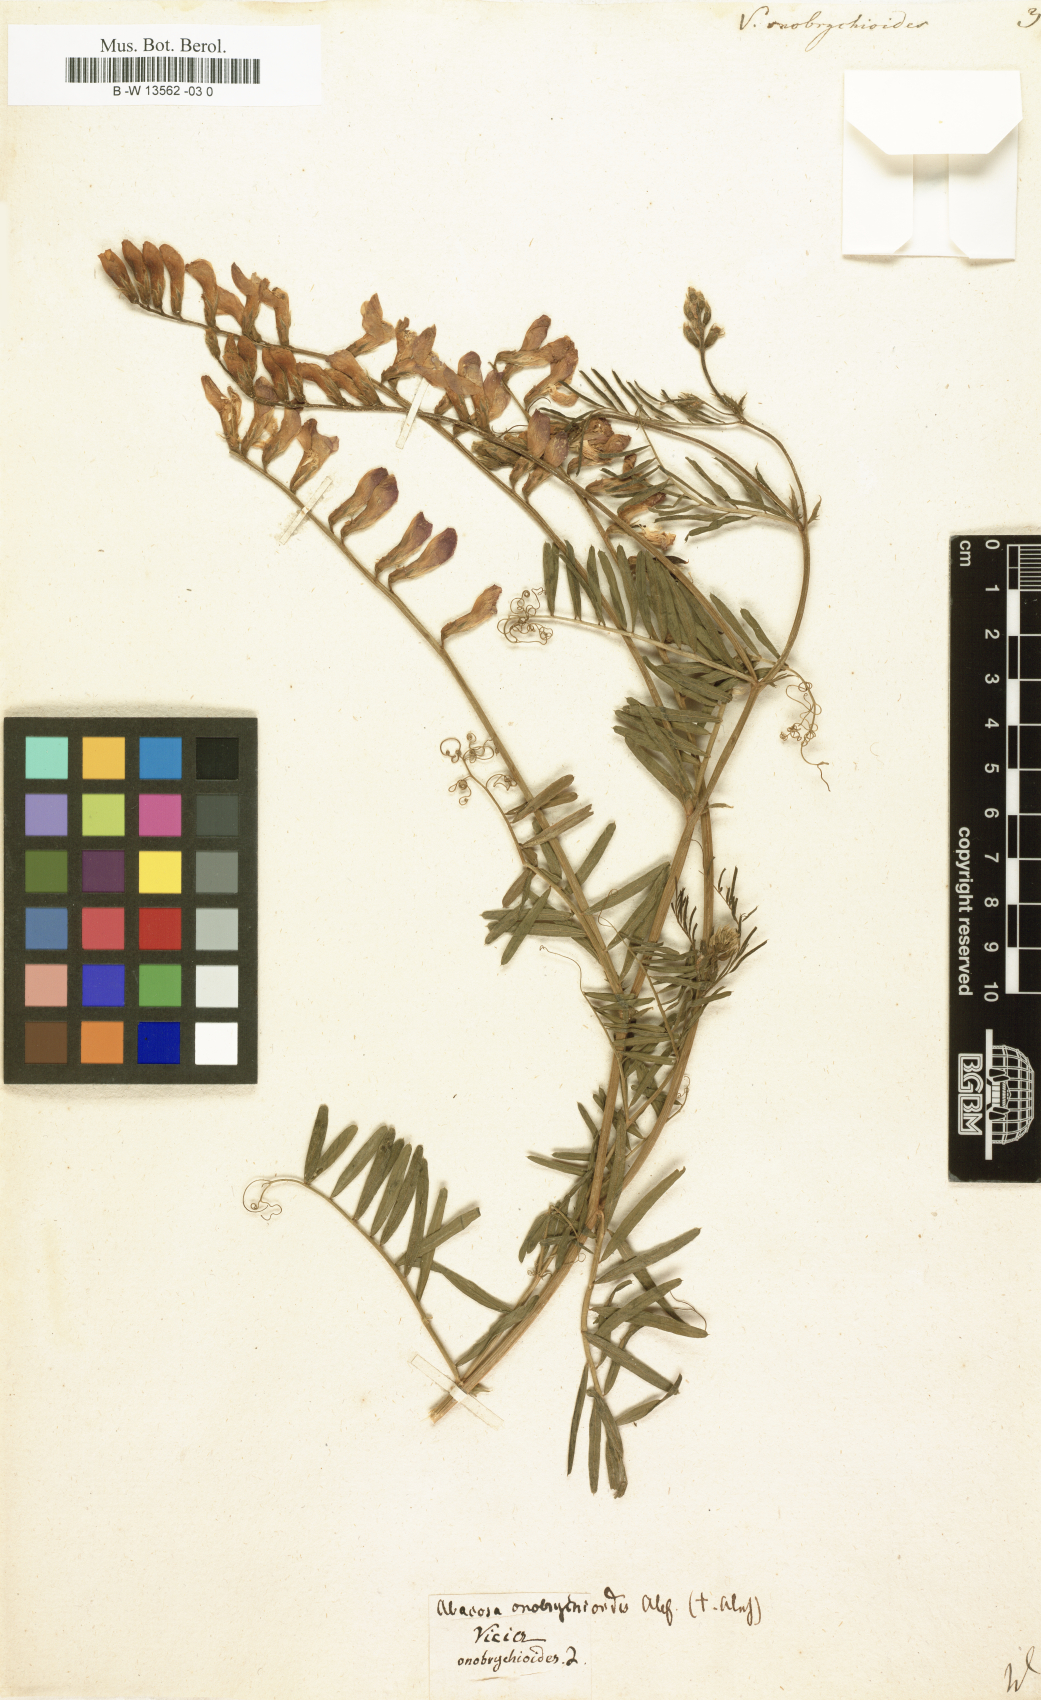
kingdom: Plantae
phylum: Tracheophyta
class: Magnoliopsida
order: Fabales
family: Fabaceae
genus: Vicia
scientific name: Vicia onobrychioides
